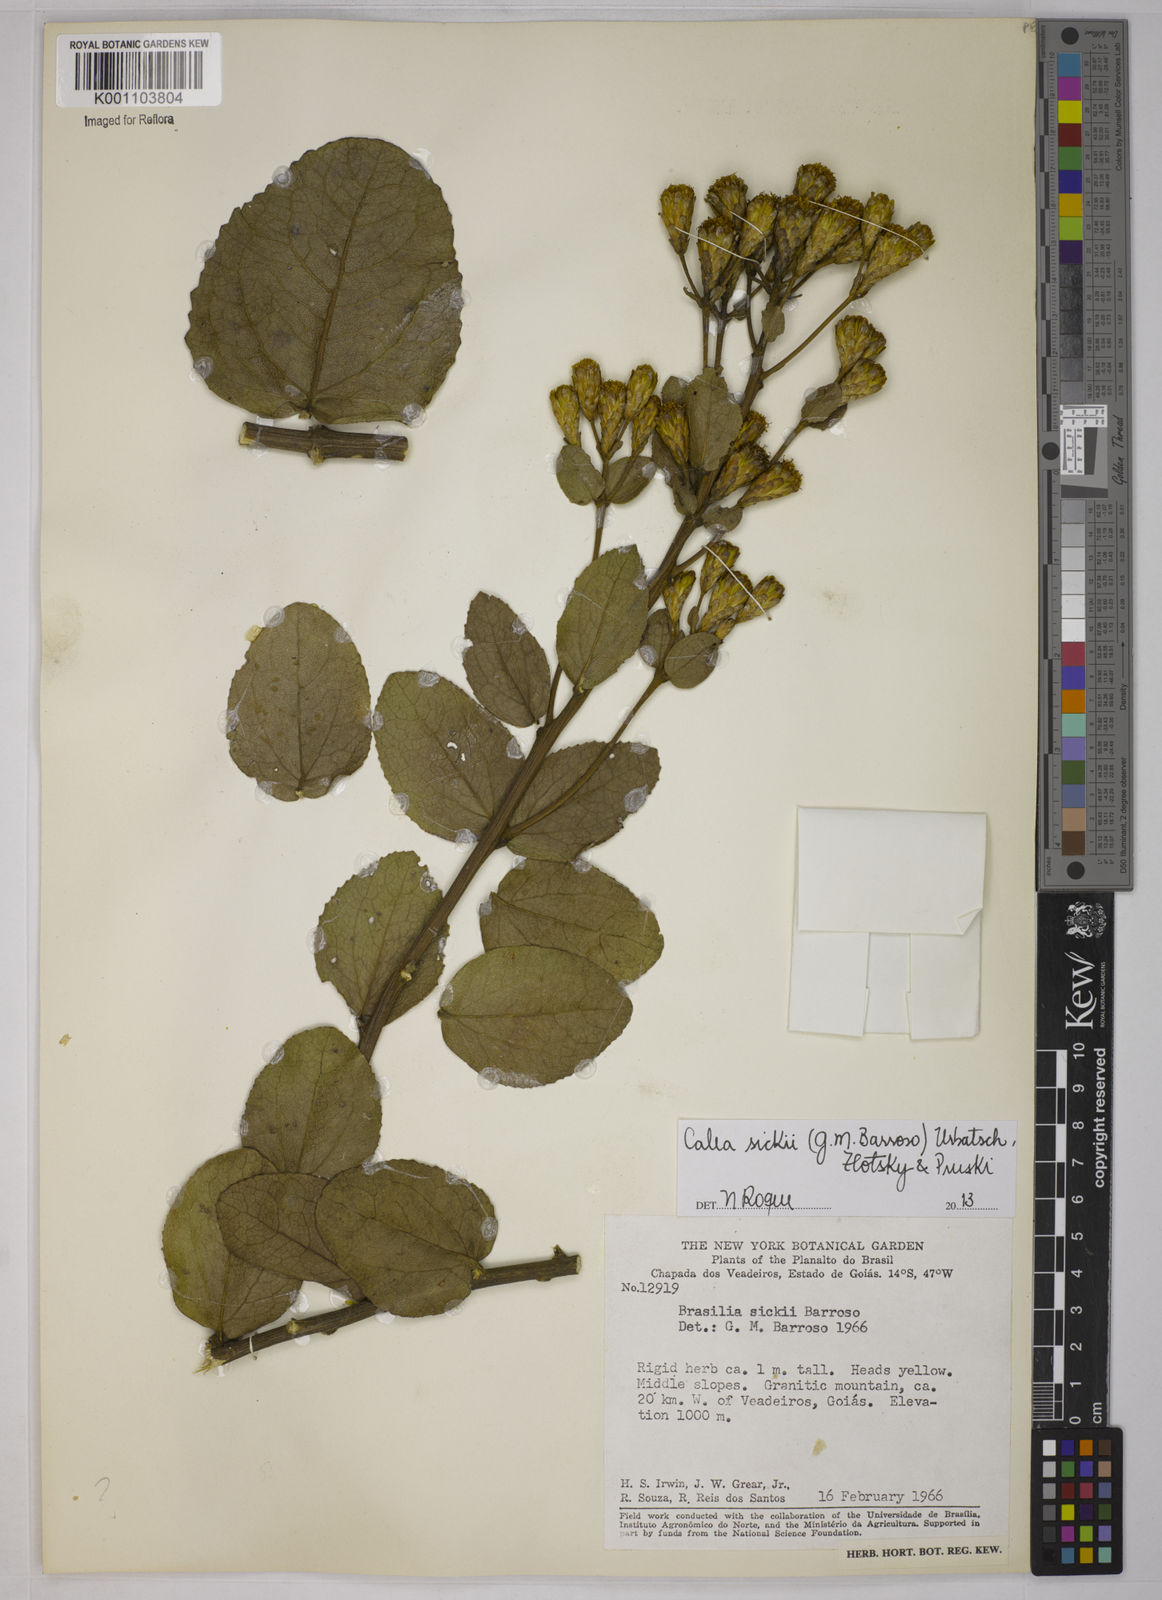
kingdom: Plantae
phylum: Tracheophyta
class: Magnoliopsida
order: Asterales
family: Asteraceae
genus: Calea
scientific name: Calea sickii
